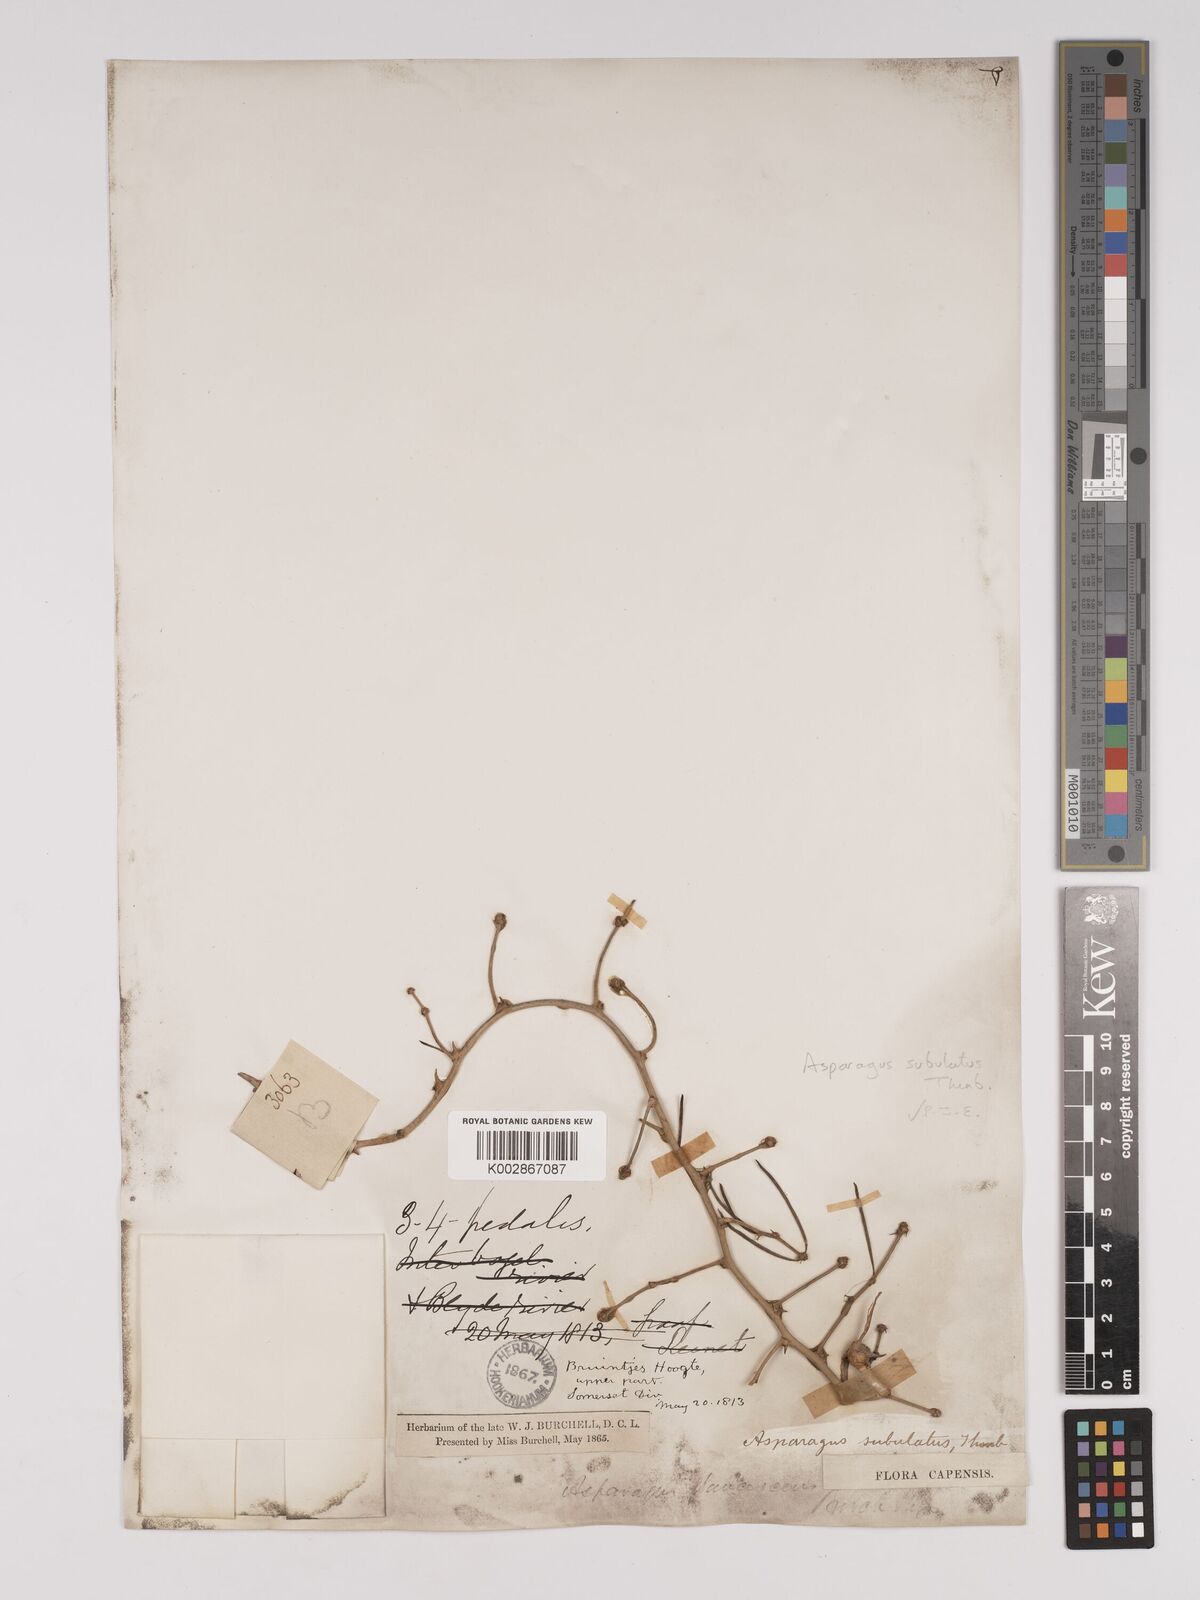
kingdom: Plantae
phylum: Tracheophyta
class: Liliopsida
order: Asparagales
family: Asparagaceae
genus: Asparagus
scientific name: Asparagus subulatus
